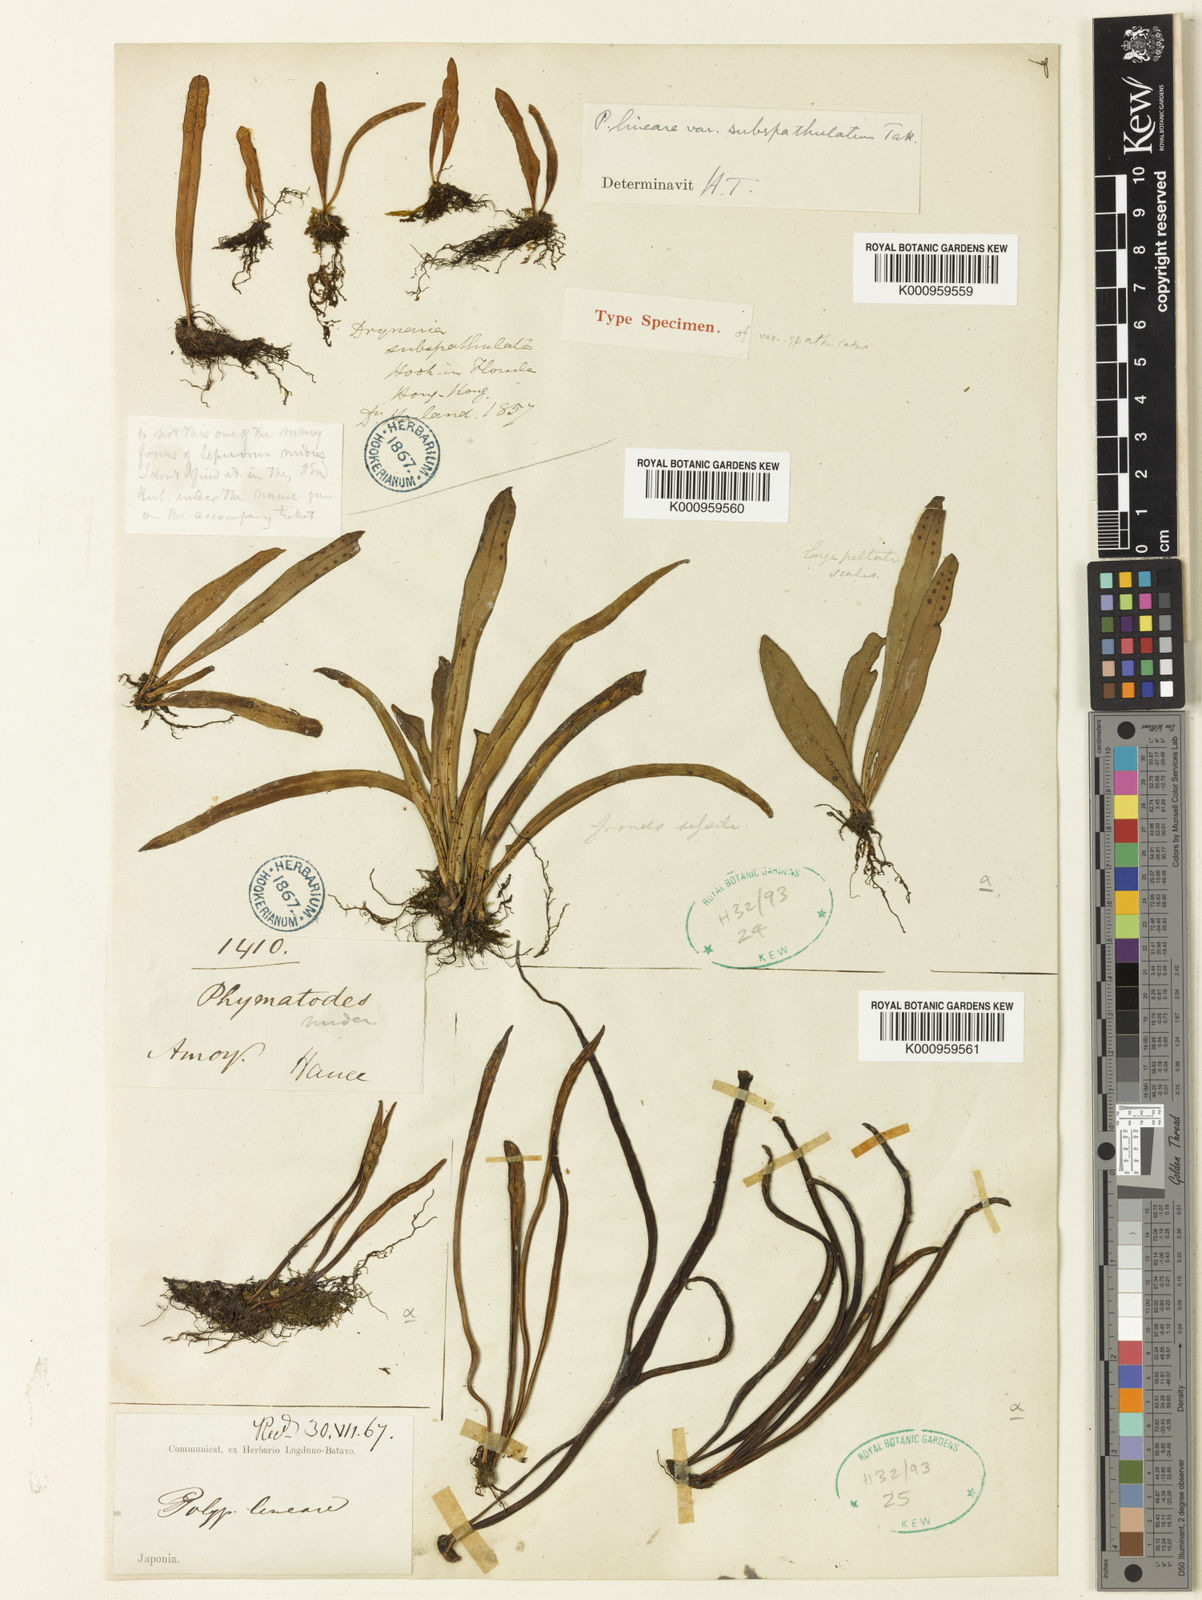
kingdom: Plantae
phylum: Tracheophyta
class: Polypodiopsida
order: Polypodiales
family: Polypodiaceae
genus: Lepisorus
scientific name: Lepisorus thunbergianus
